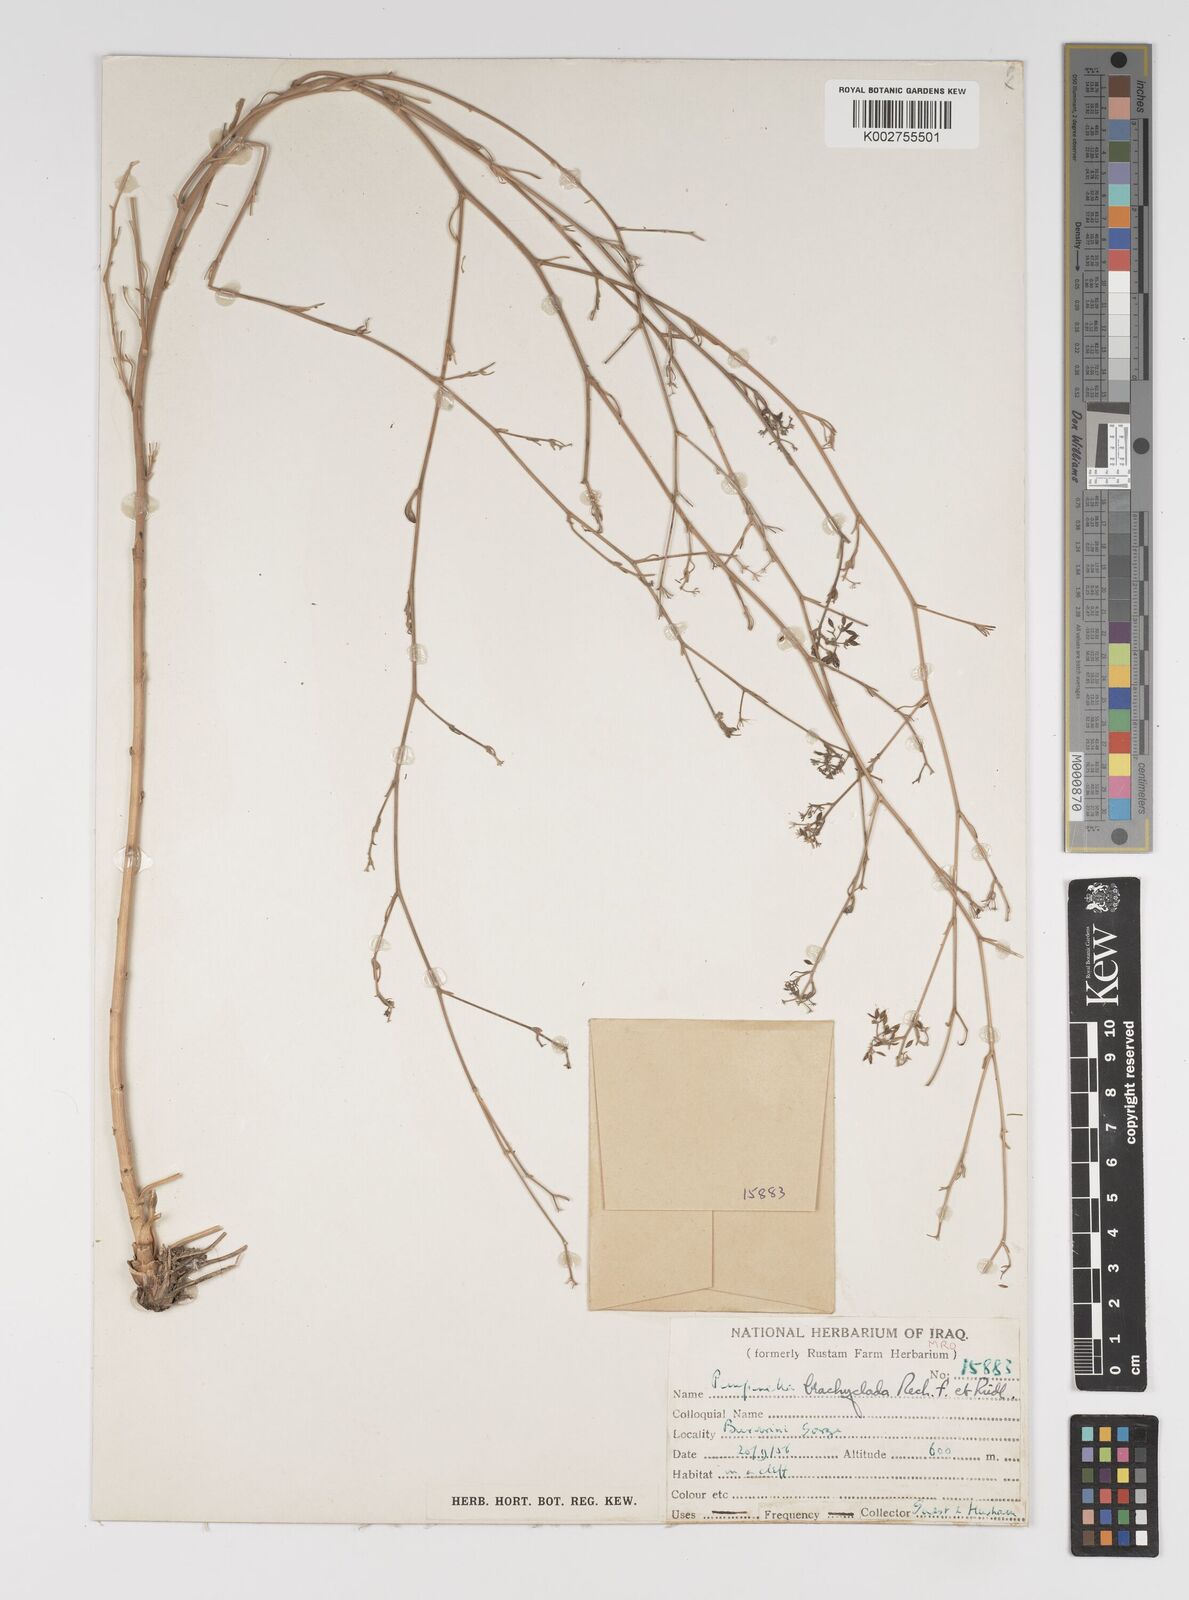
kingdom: Plantae
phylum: Tracheophyta
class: Magnoliopsida
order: Apiales
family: Apiaceae
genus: Pimpinella
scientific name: Pimpinella brachyclada
